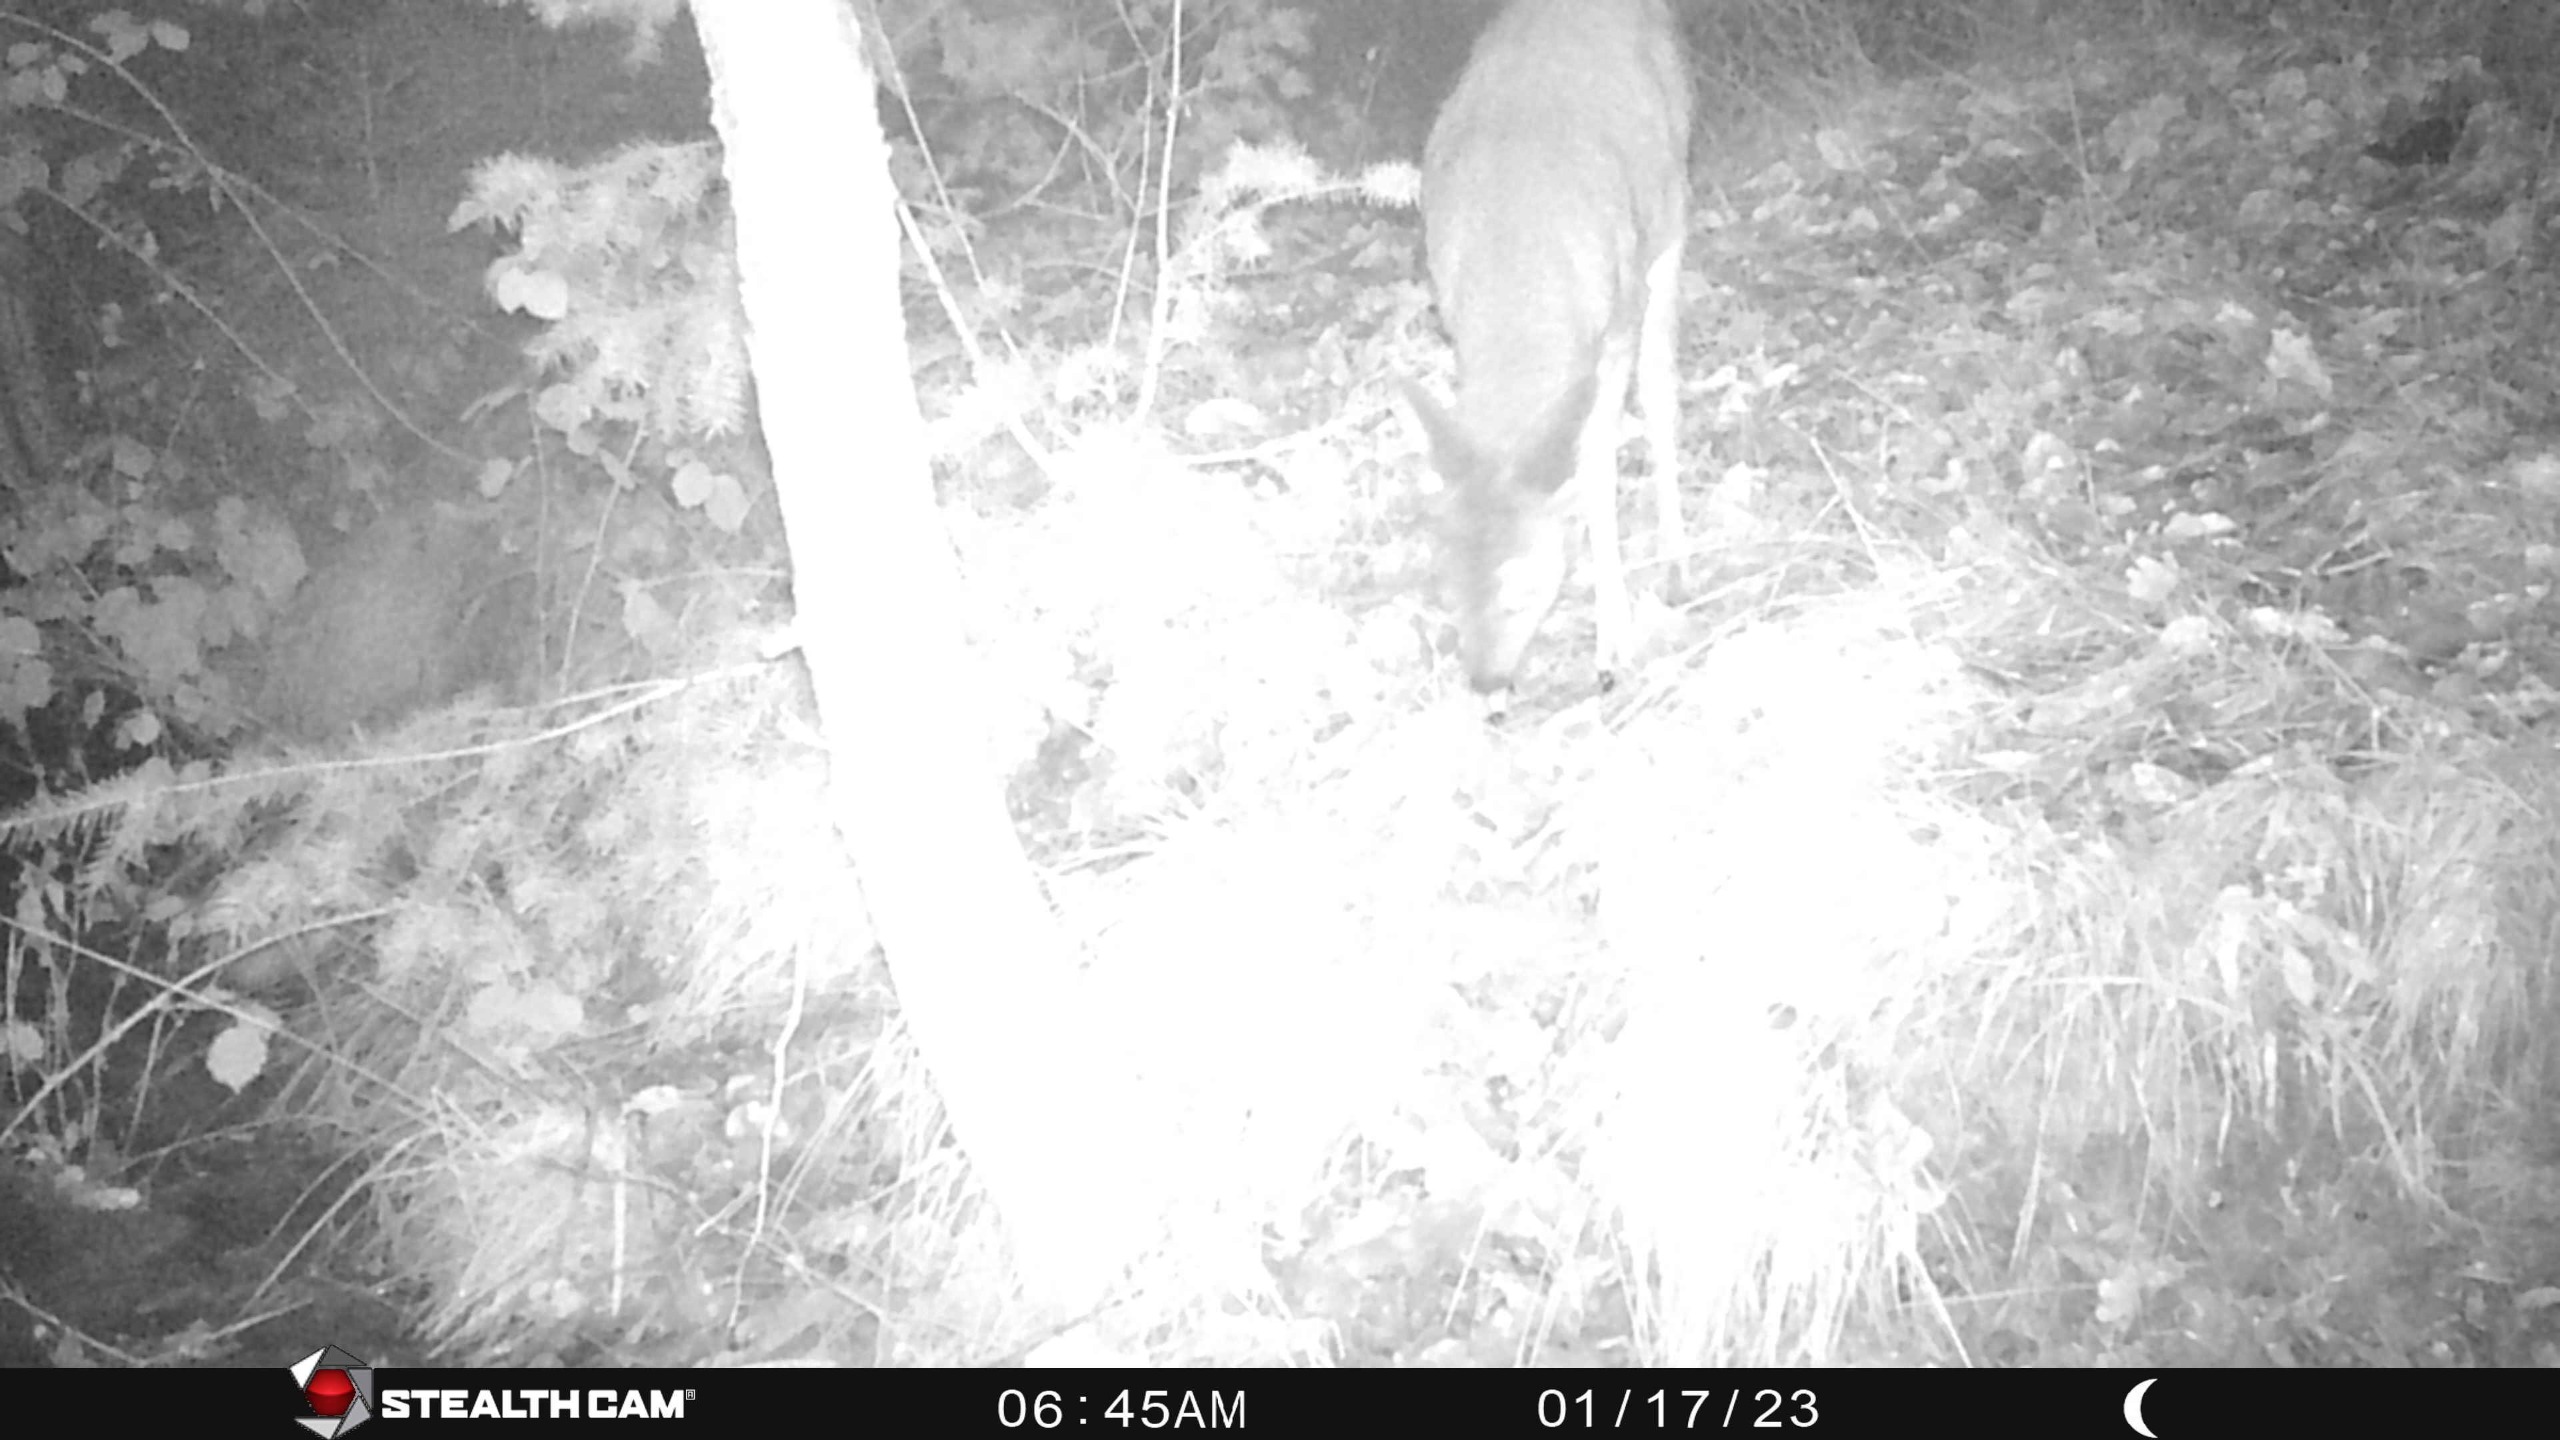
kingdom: Animalia
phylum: Chordata
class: Mammalia
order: Artiodactyla
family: Cervidae
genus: Capreolus
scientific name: Capreolus capreolus
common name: Rådyr
